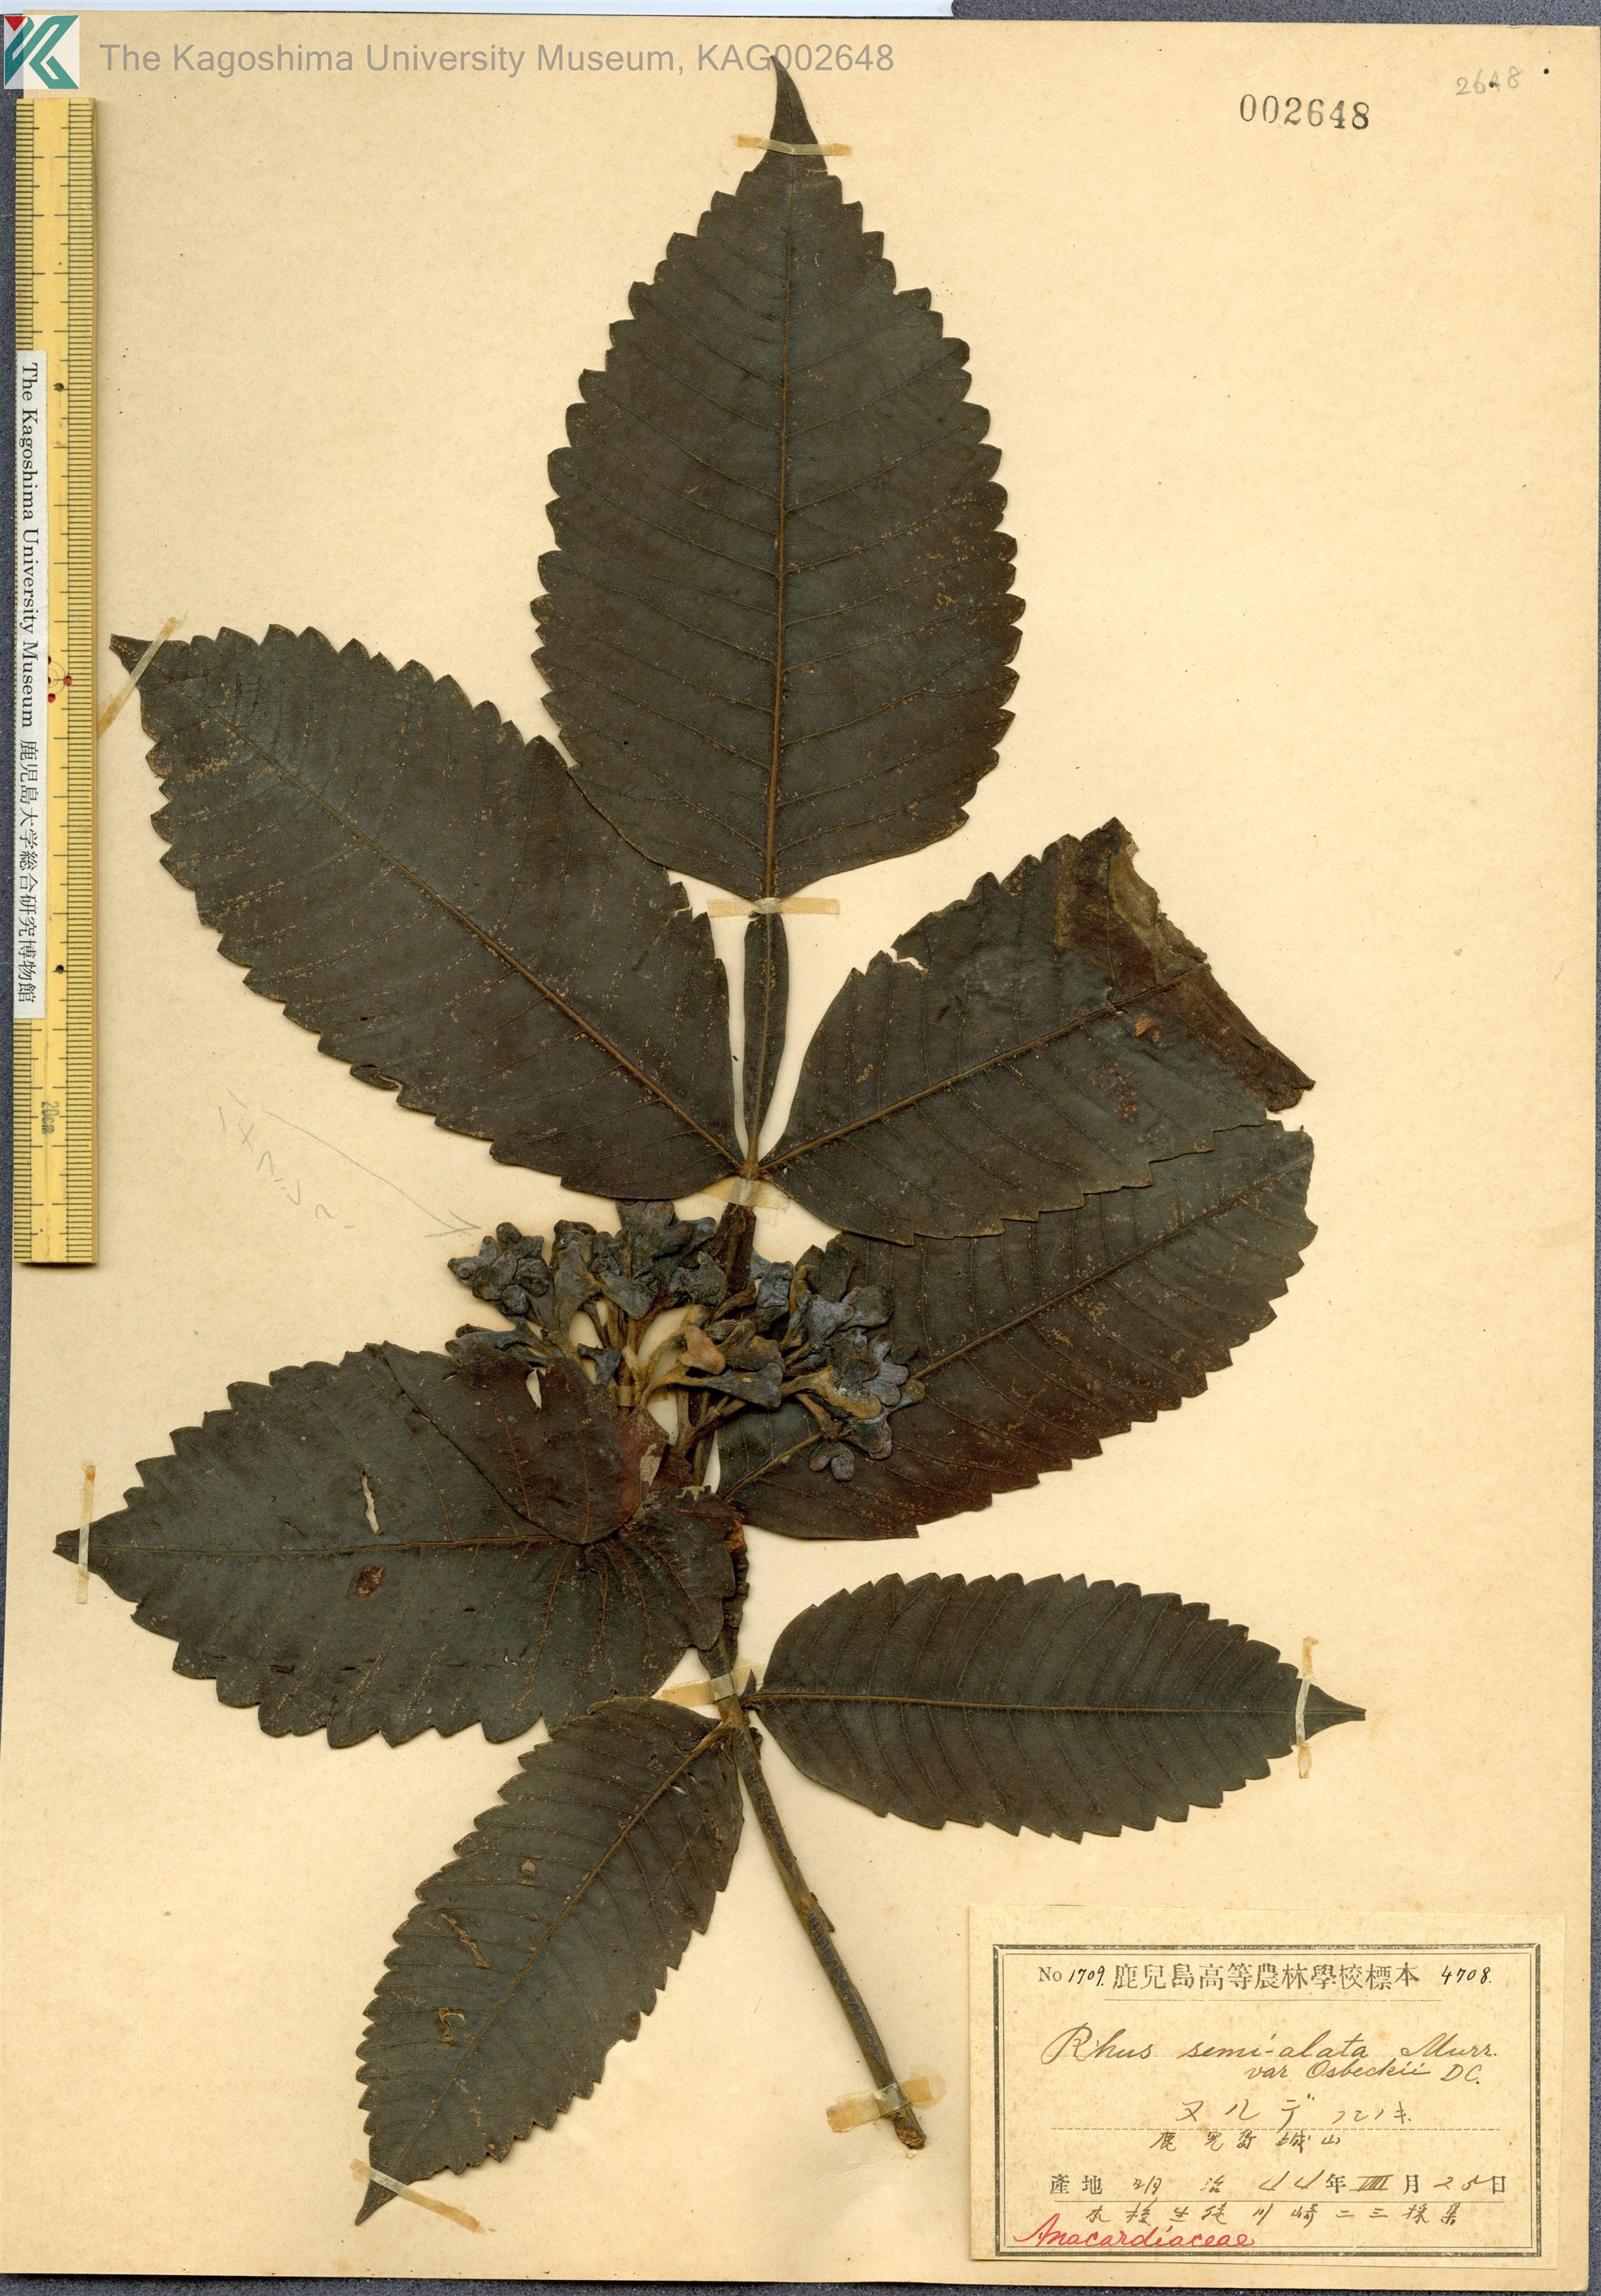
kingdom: Plantae
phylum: Tracheophyta
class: Magnoliopsida
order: Sapindales
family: Simaroubaceae
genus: Brucea
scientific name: Brucea javanica
